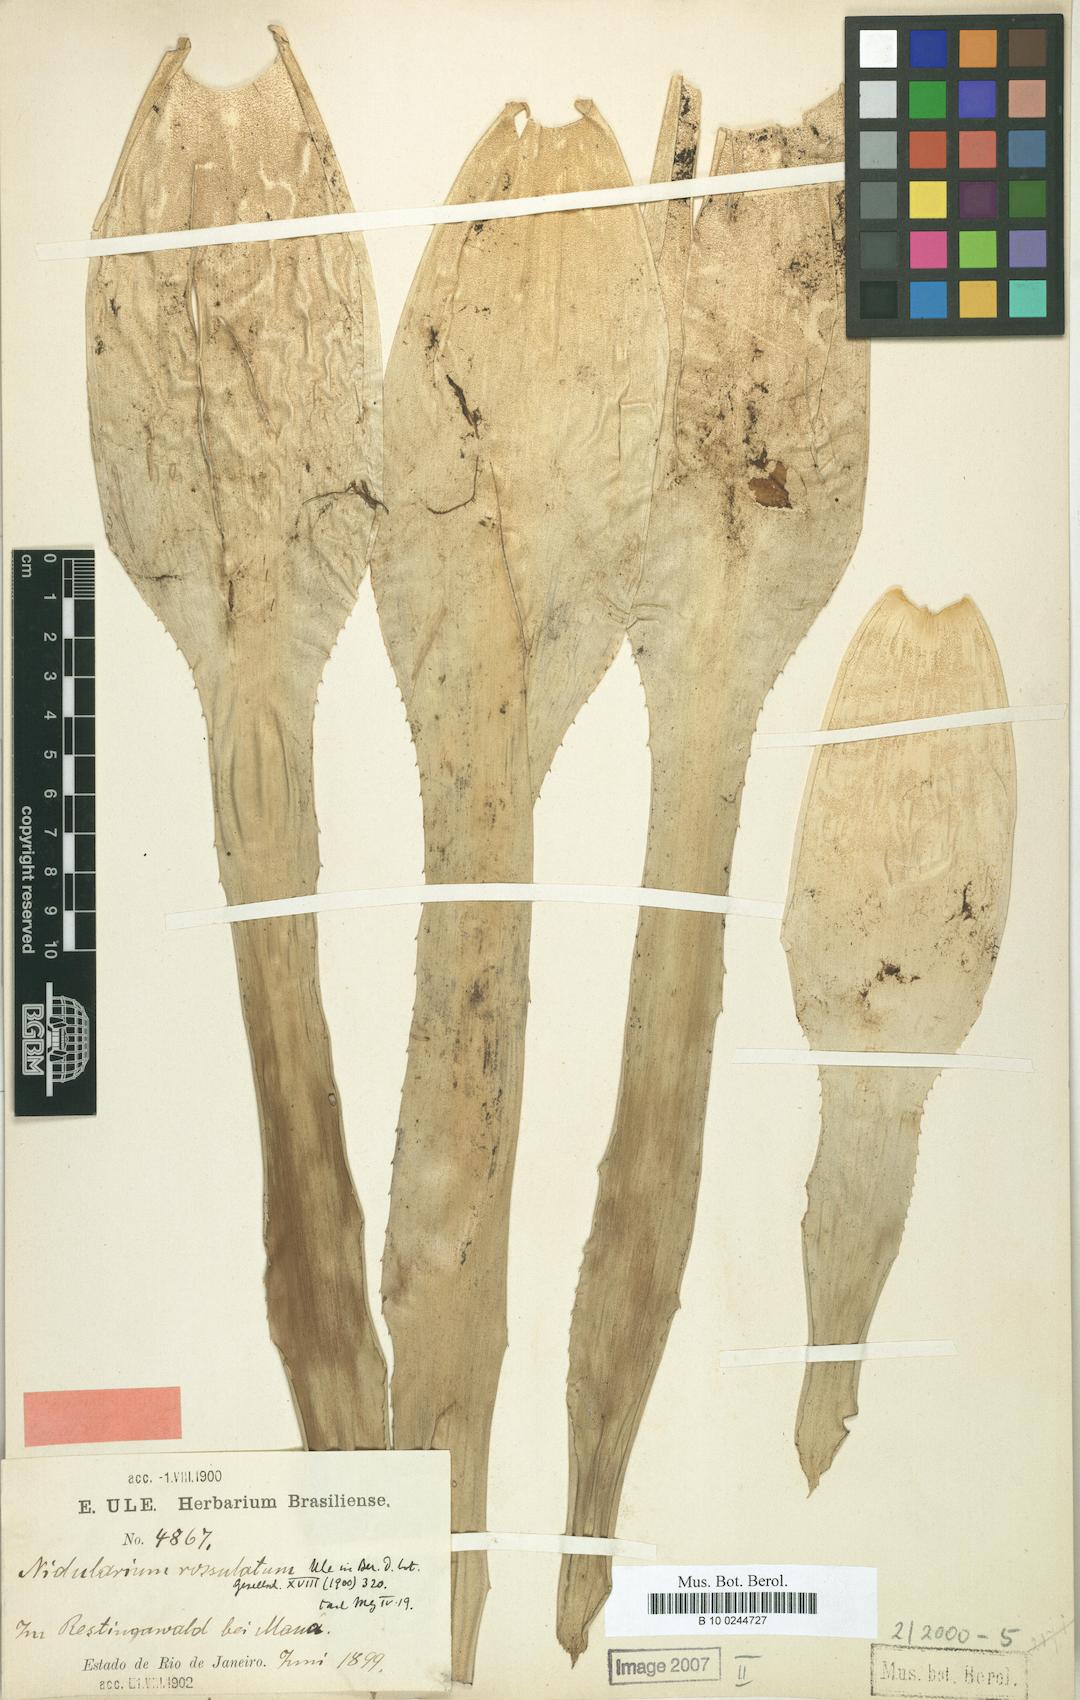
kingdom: Plantae
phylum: Tracheophyta
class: Liliopsida
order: Poales
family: Bromeliaceae
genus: Nidularium
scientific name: Nidularium rosulatum
